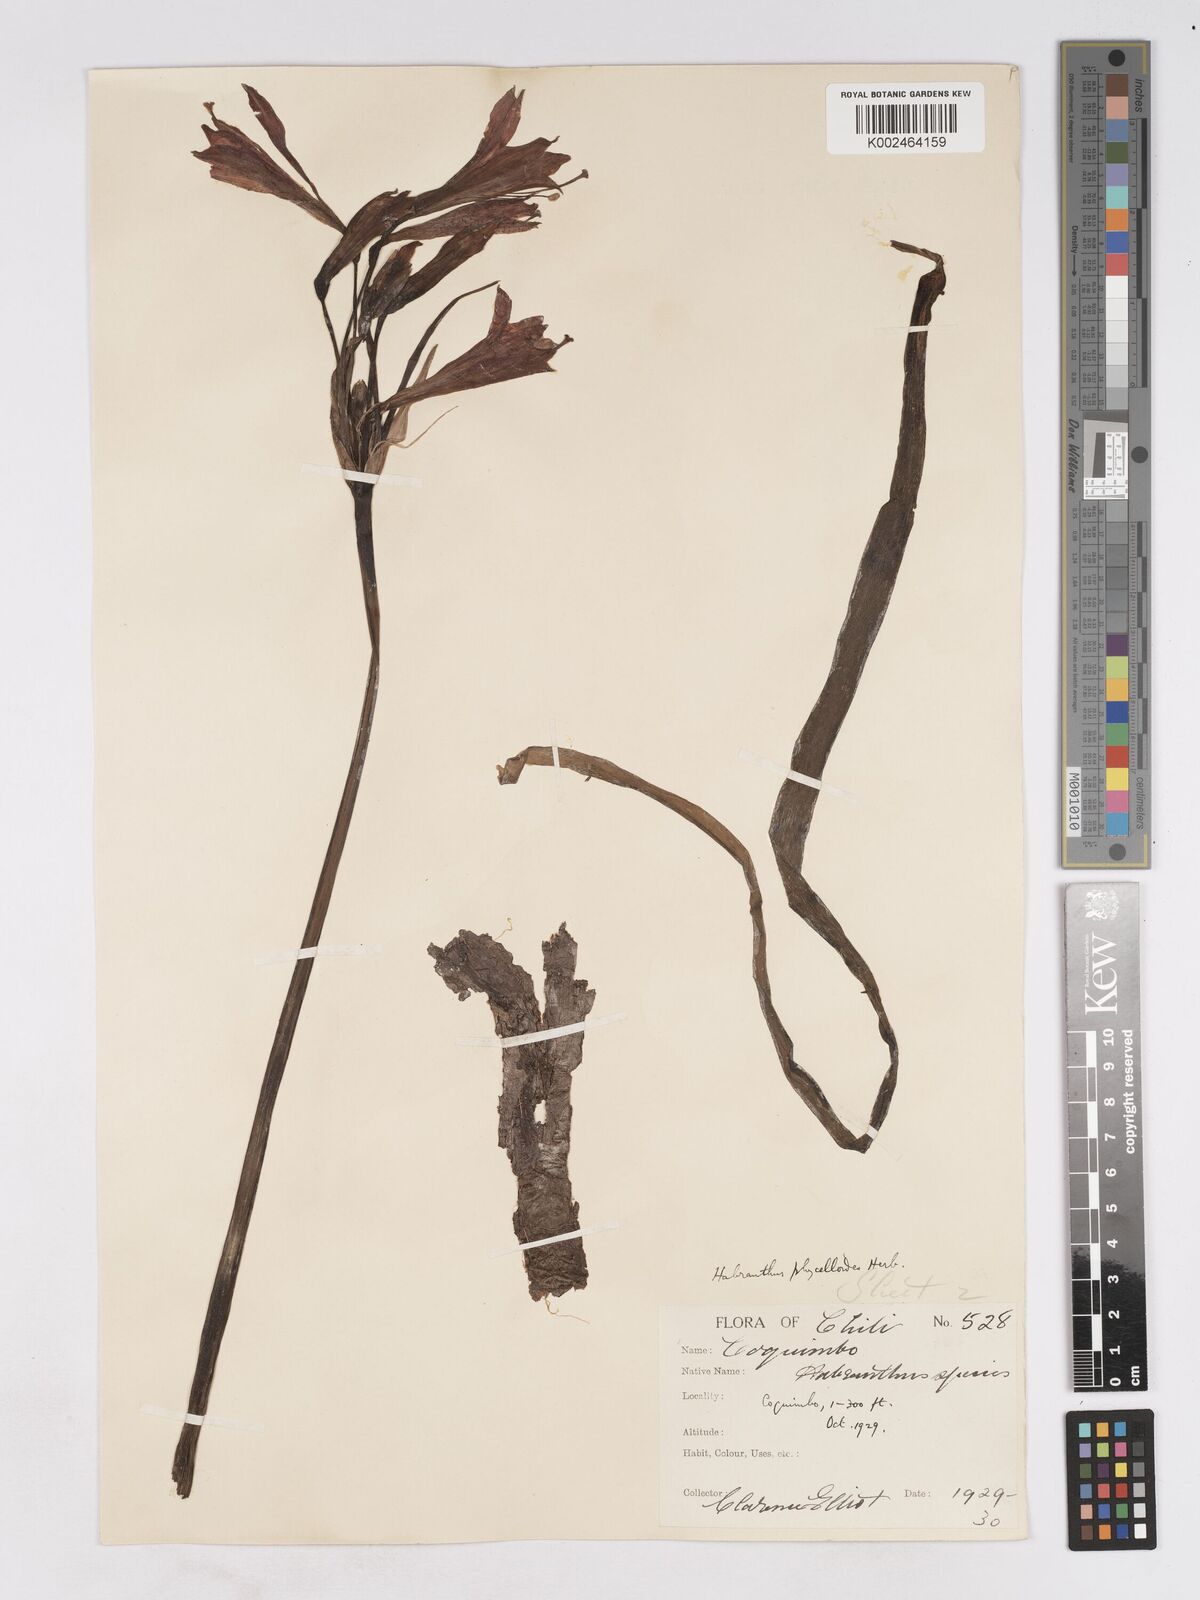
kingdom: Plantae
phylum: Tracheophyta
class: Liliopsida
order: Asparagales
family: Amaryllidaceae
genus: Zephyranthes
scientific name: Zephyranthes phycelloides
